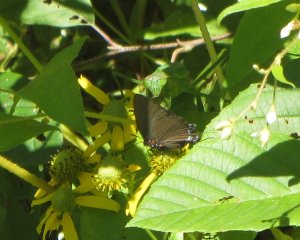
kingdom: Animalia
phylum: Arthropoda
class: Insecta
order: Lepidoptera
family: Lycaenidae
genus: Atlides
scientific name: Atlides halesus
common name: Great Purple Hairstreak
